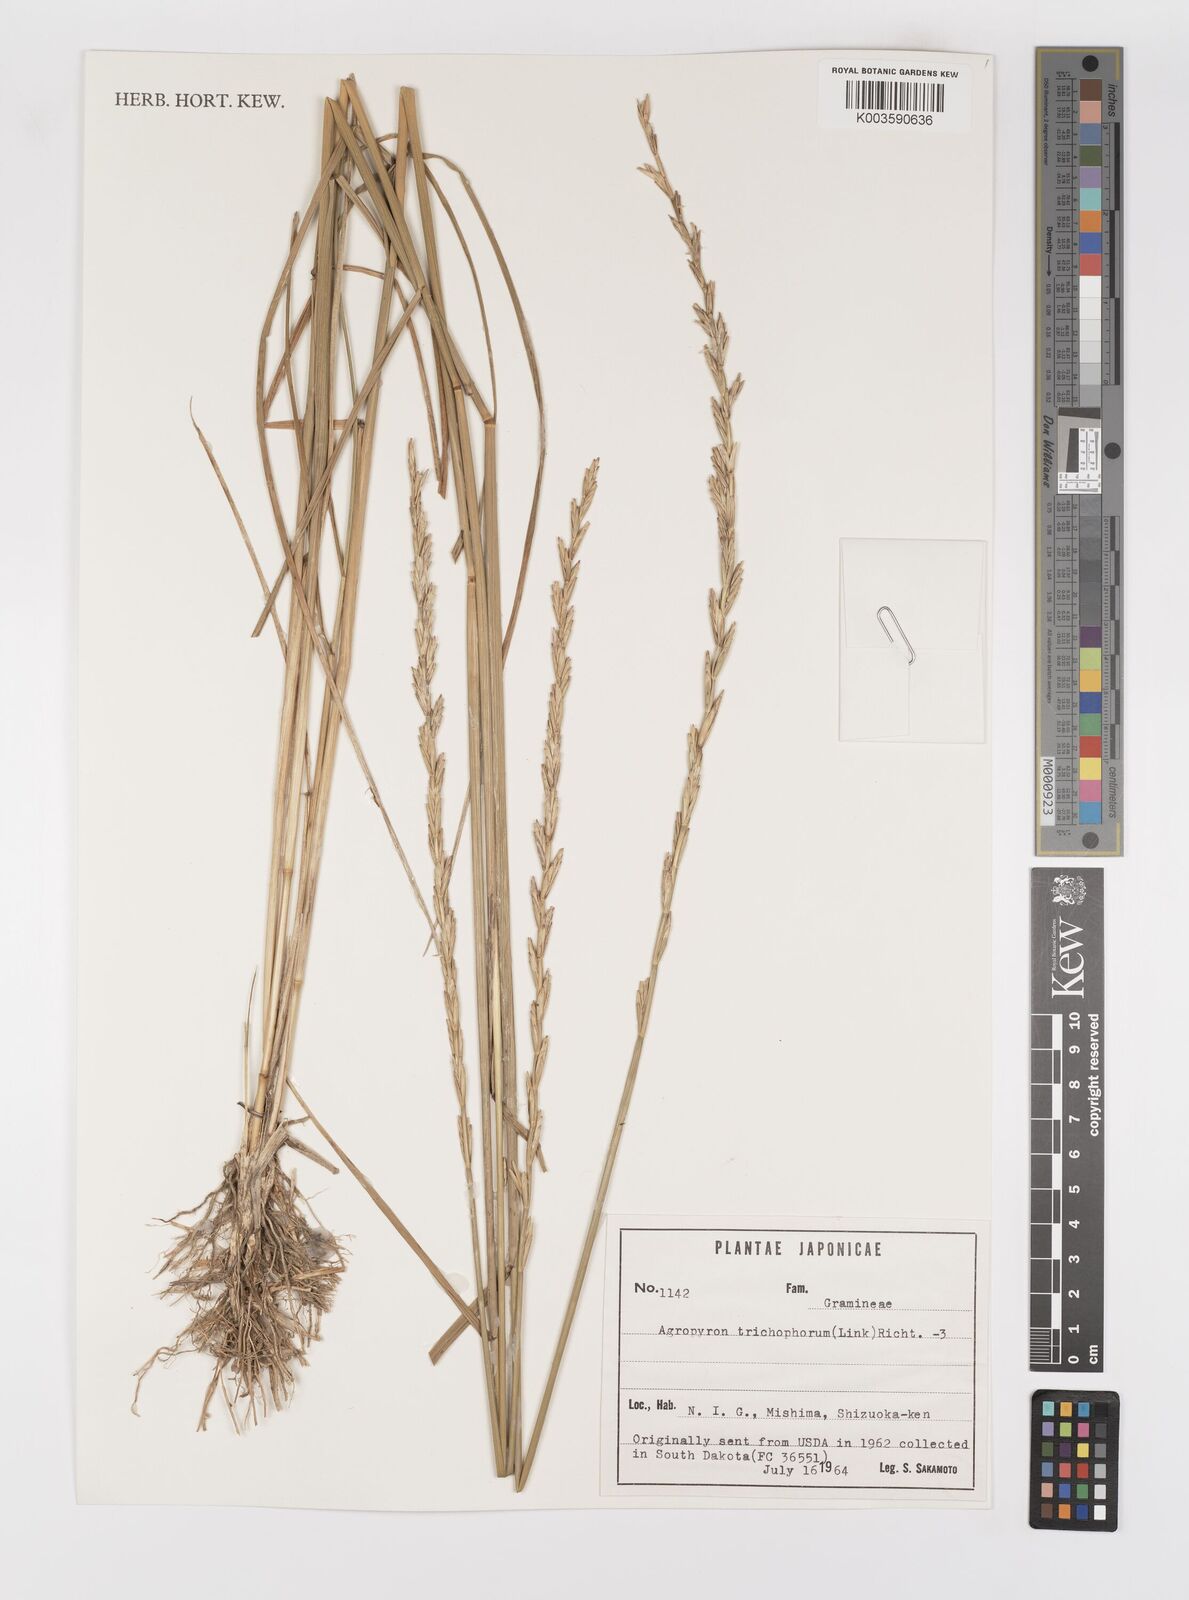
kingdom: Plantae
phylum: Tracheophyta
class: Liliopsida
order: Poales
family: Poaceae
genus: Thinopyrum
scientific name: Thinopyrum intermedium
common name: Intermediate wheatgrass
